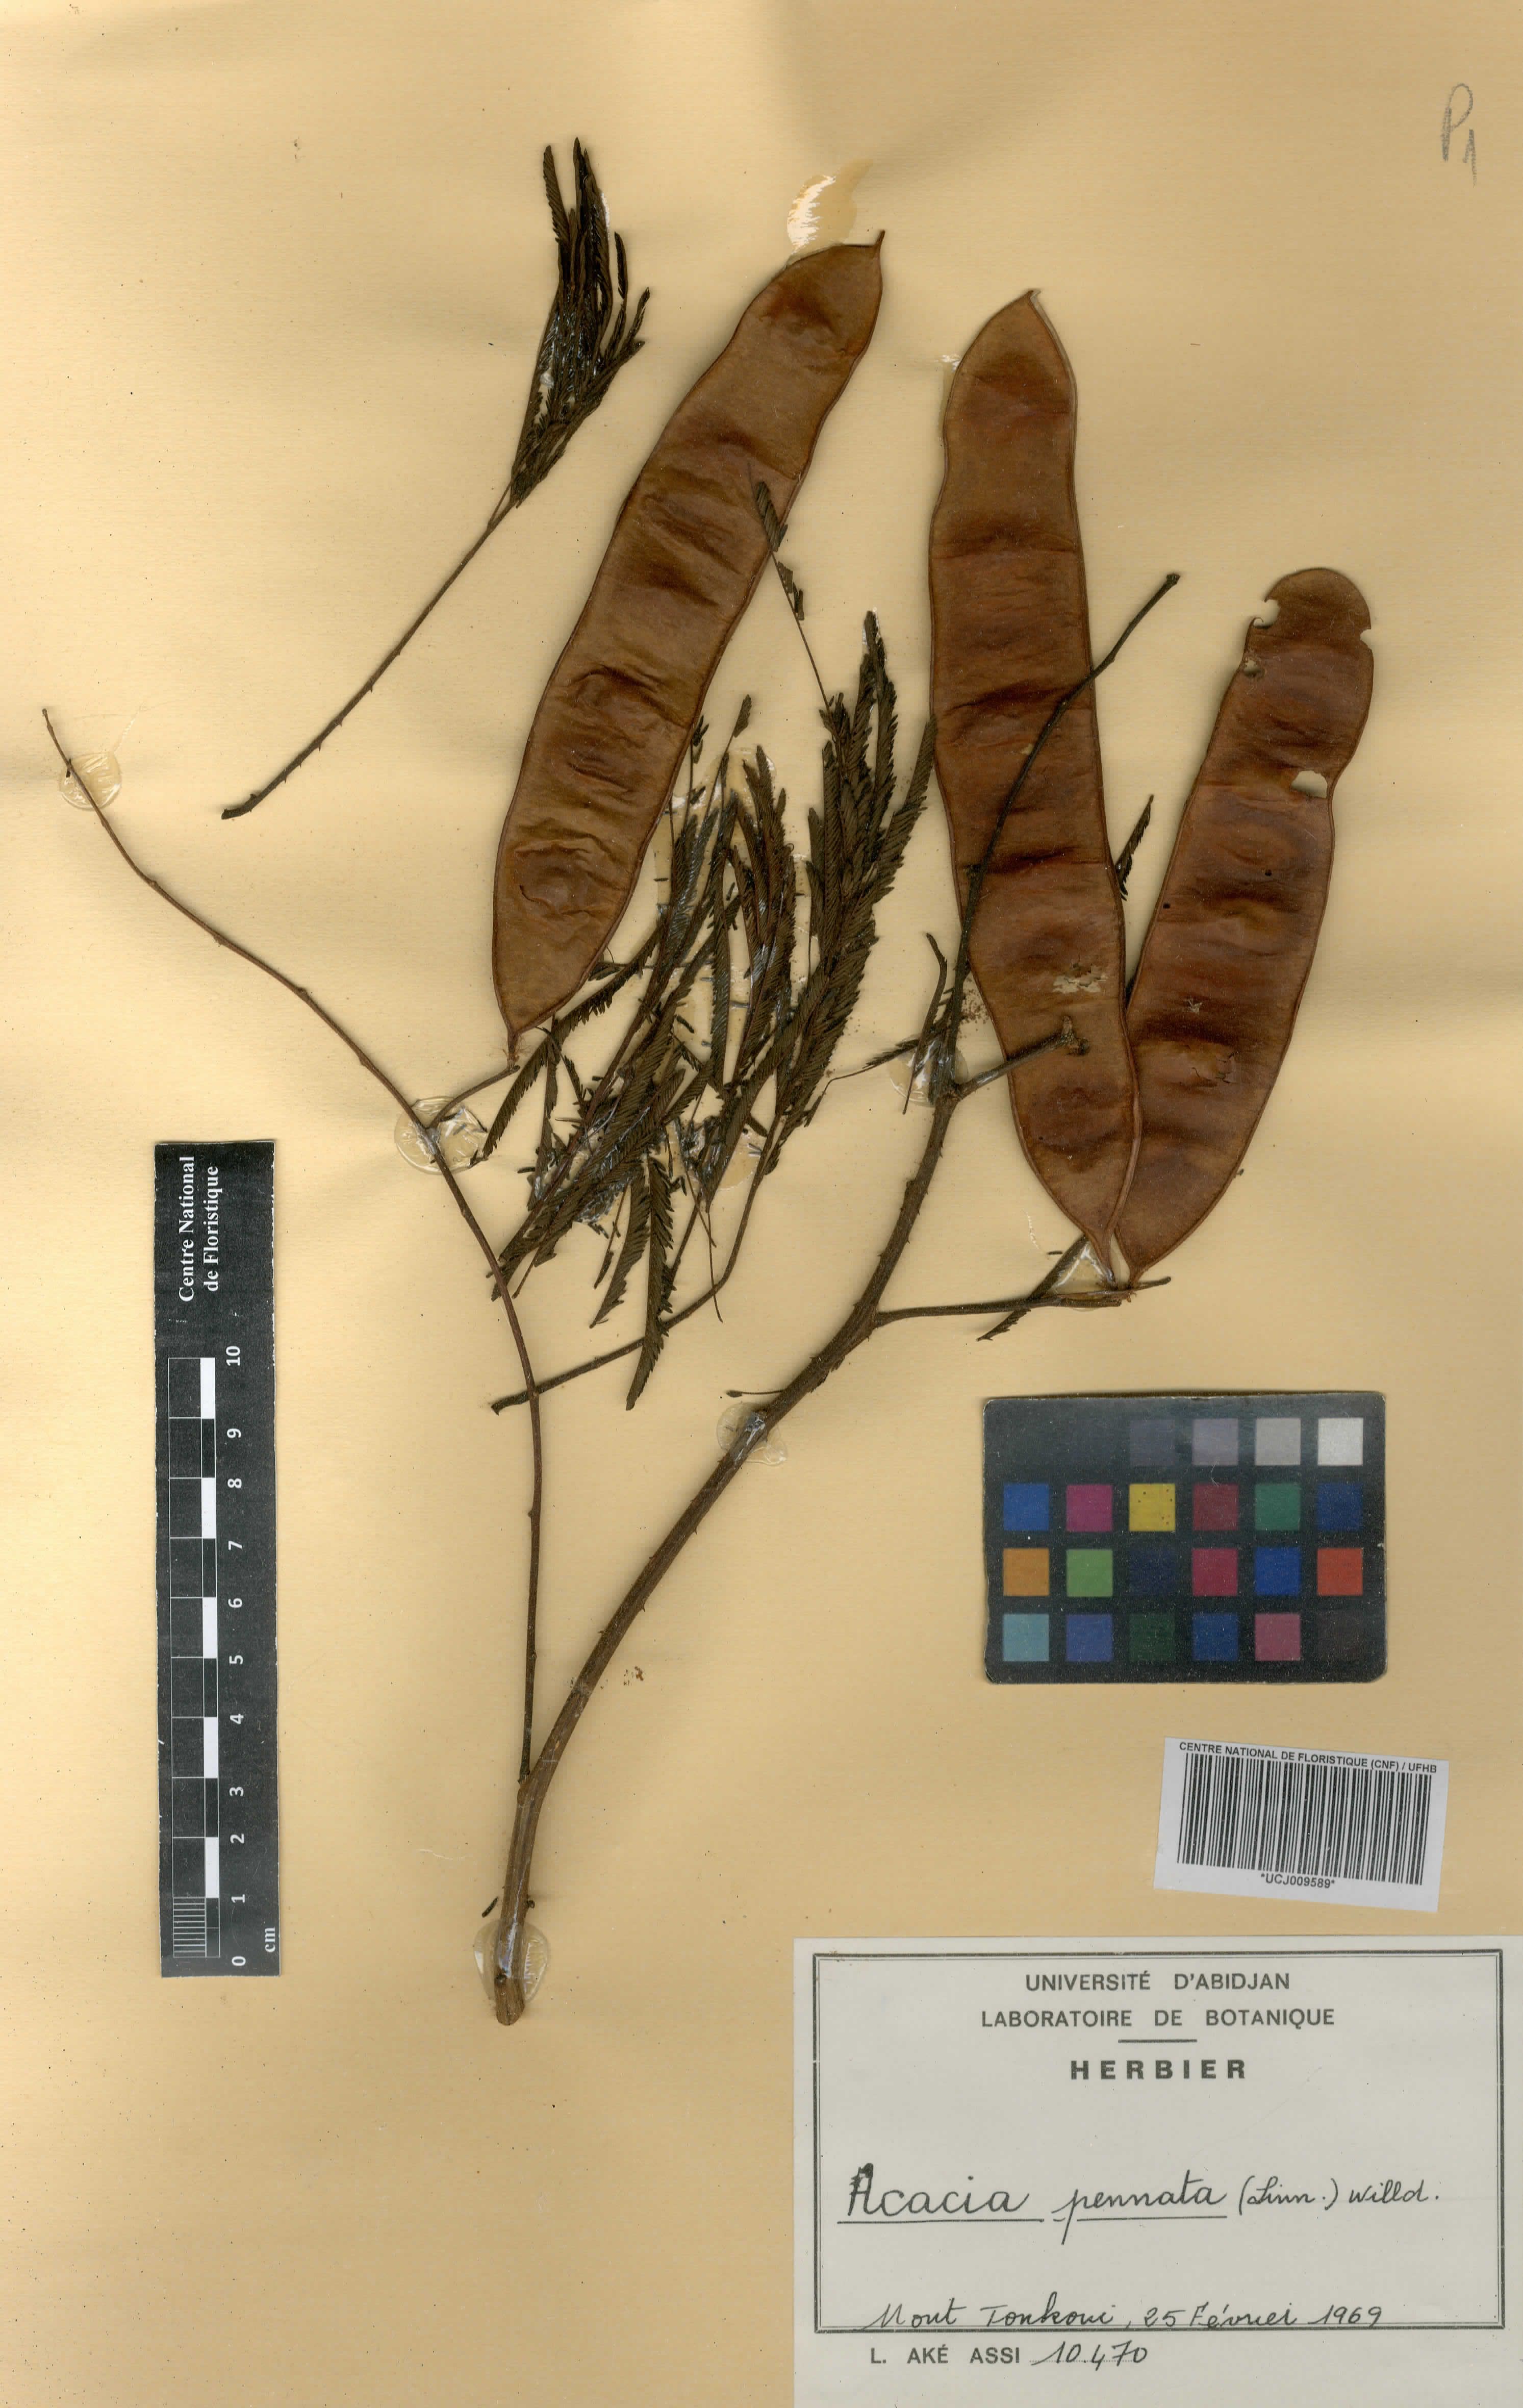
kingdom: Plantae
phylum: Tracheophyta
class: Magnoliopsida
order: Fabales
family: Fabaceae
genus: Senegalia
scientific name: Senegalia pennata
